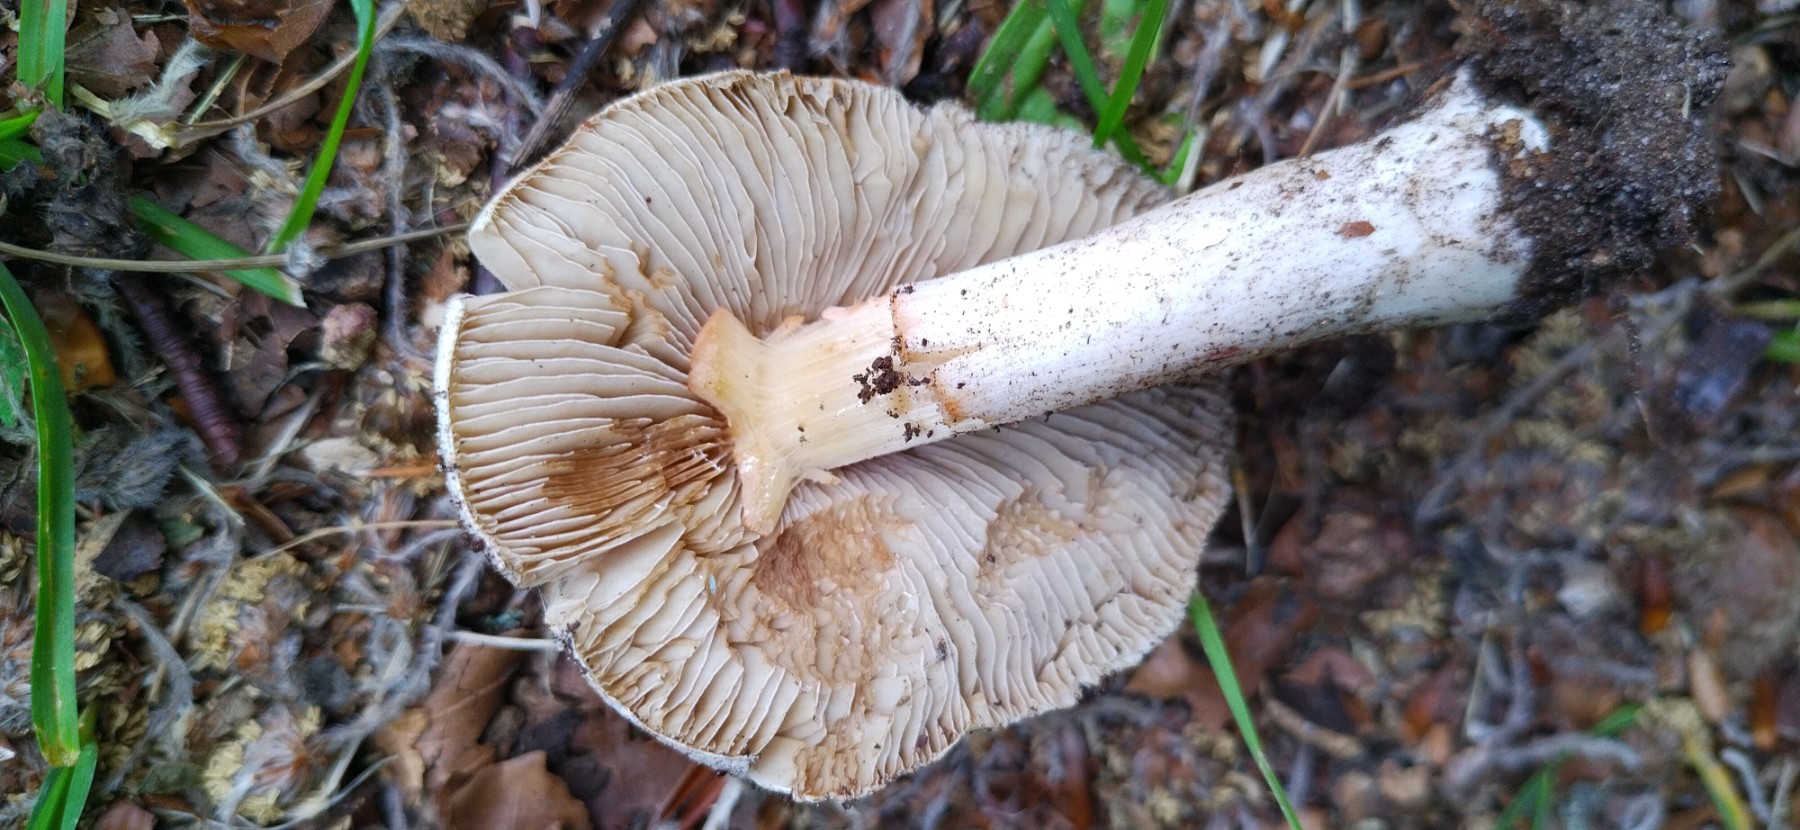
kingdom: Fungi
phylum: Basidiomycota
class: Agaricomycetes
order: Agaricales
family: Inocybaceae
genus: Inosperma
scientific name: Inosperma erubescens
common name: giftig trævlhat
